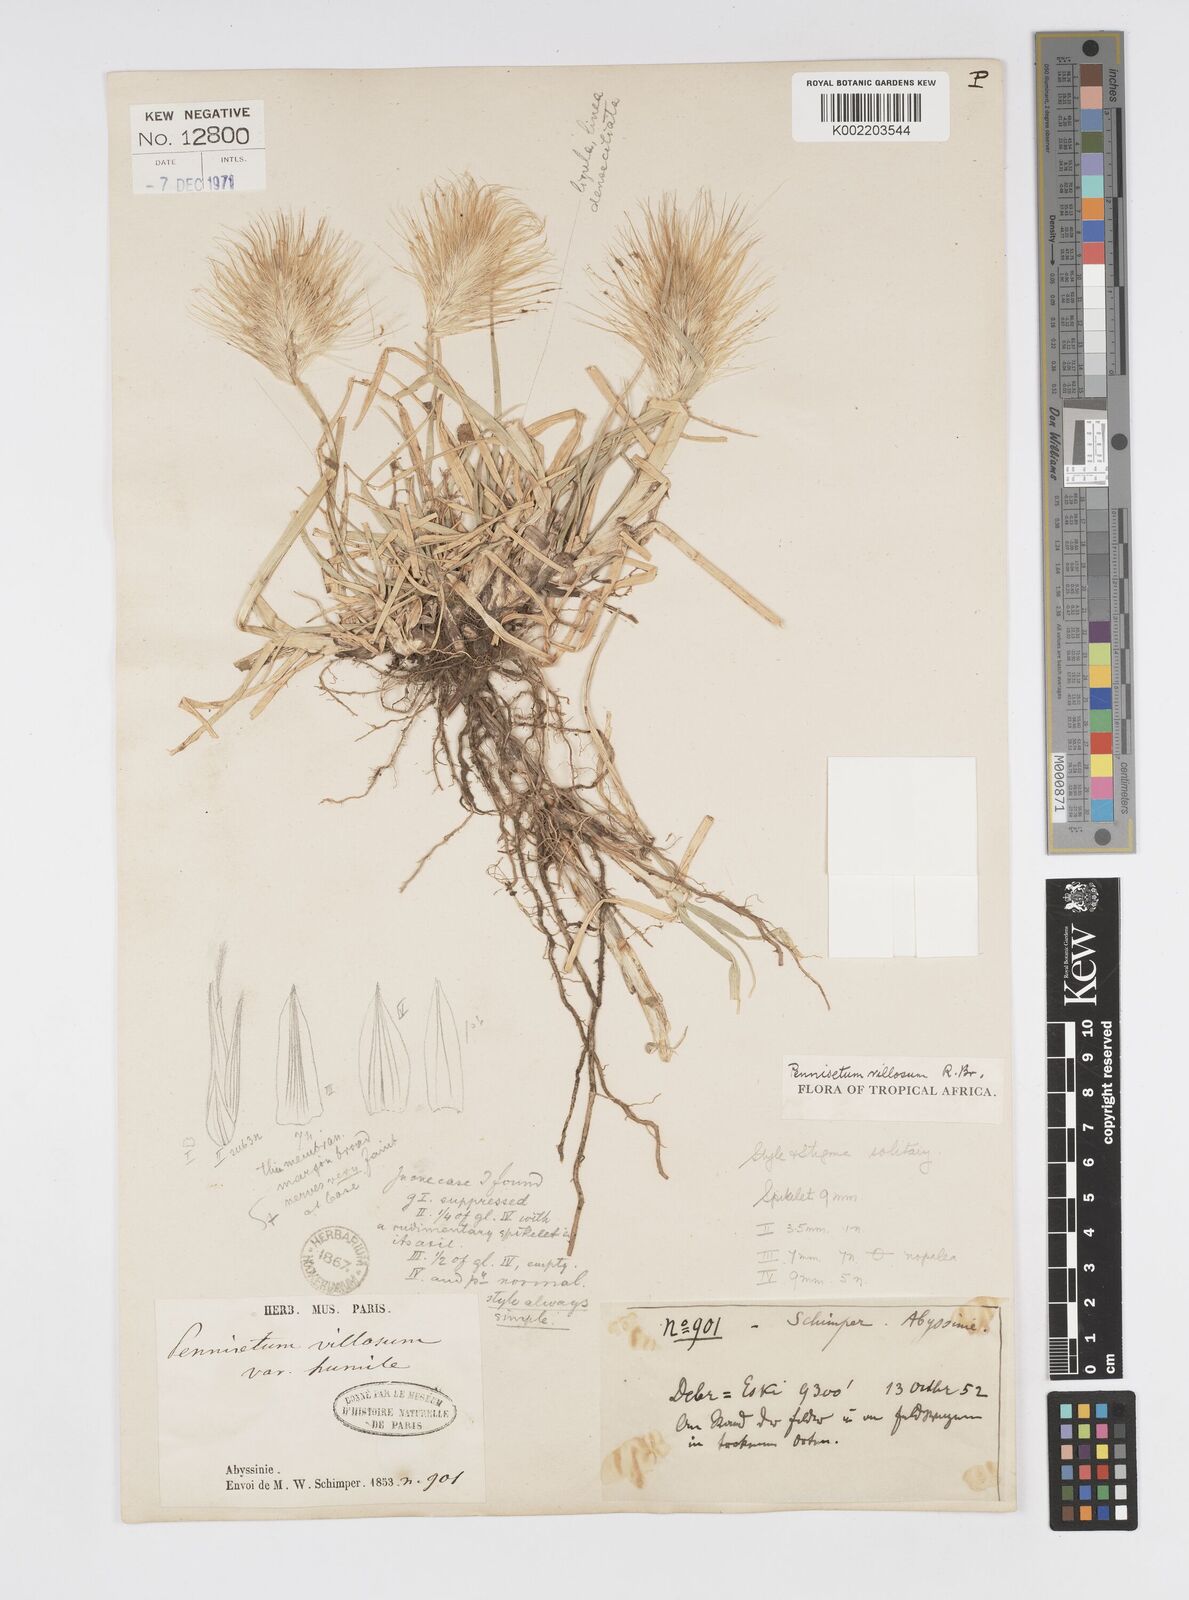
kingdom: Plantae
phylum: Tracheophyta
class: Liliopsida
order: Poales
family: Poaceae
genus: Cenchrus
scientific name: Cenchrus longisetus
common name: Feathertop
